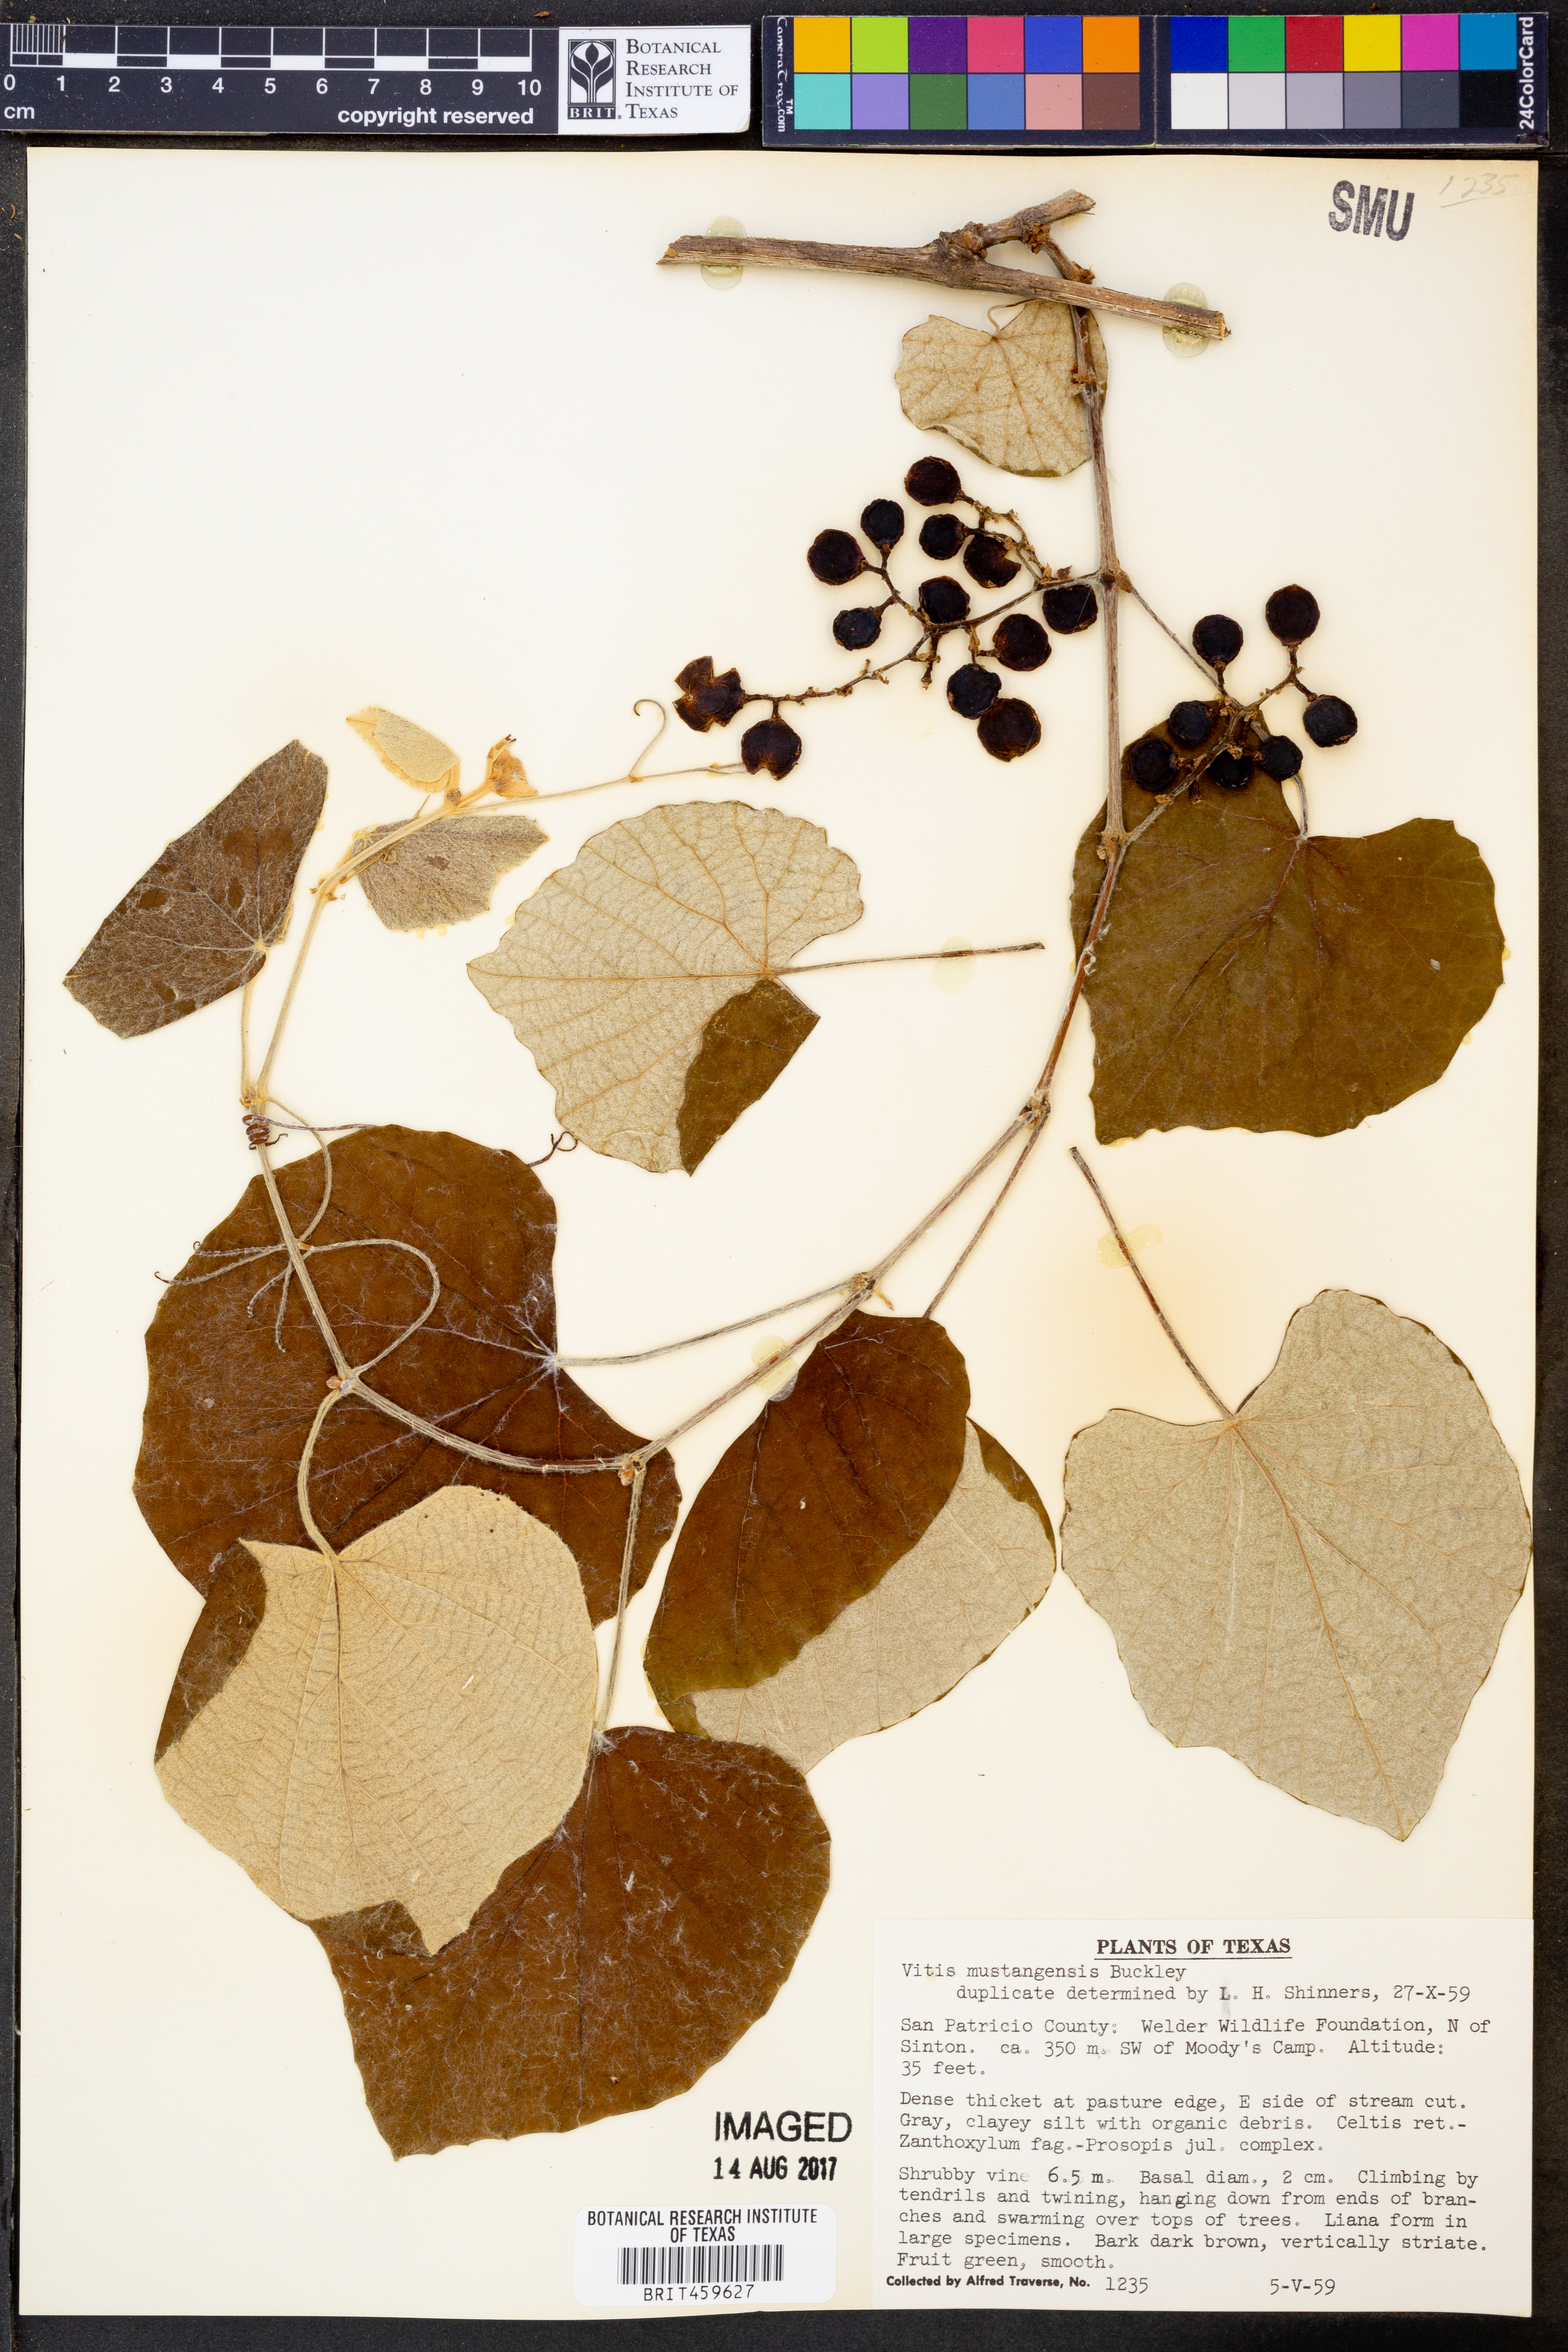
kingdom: Plantae
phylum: Tracheophyta
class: Magnoliopsida
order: Vitales
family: Vitaceae
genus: Vitis
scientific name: Vitis mustangensis
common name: Mustang grape
